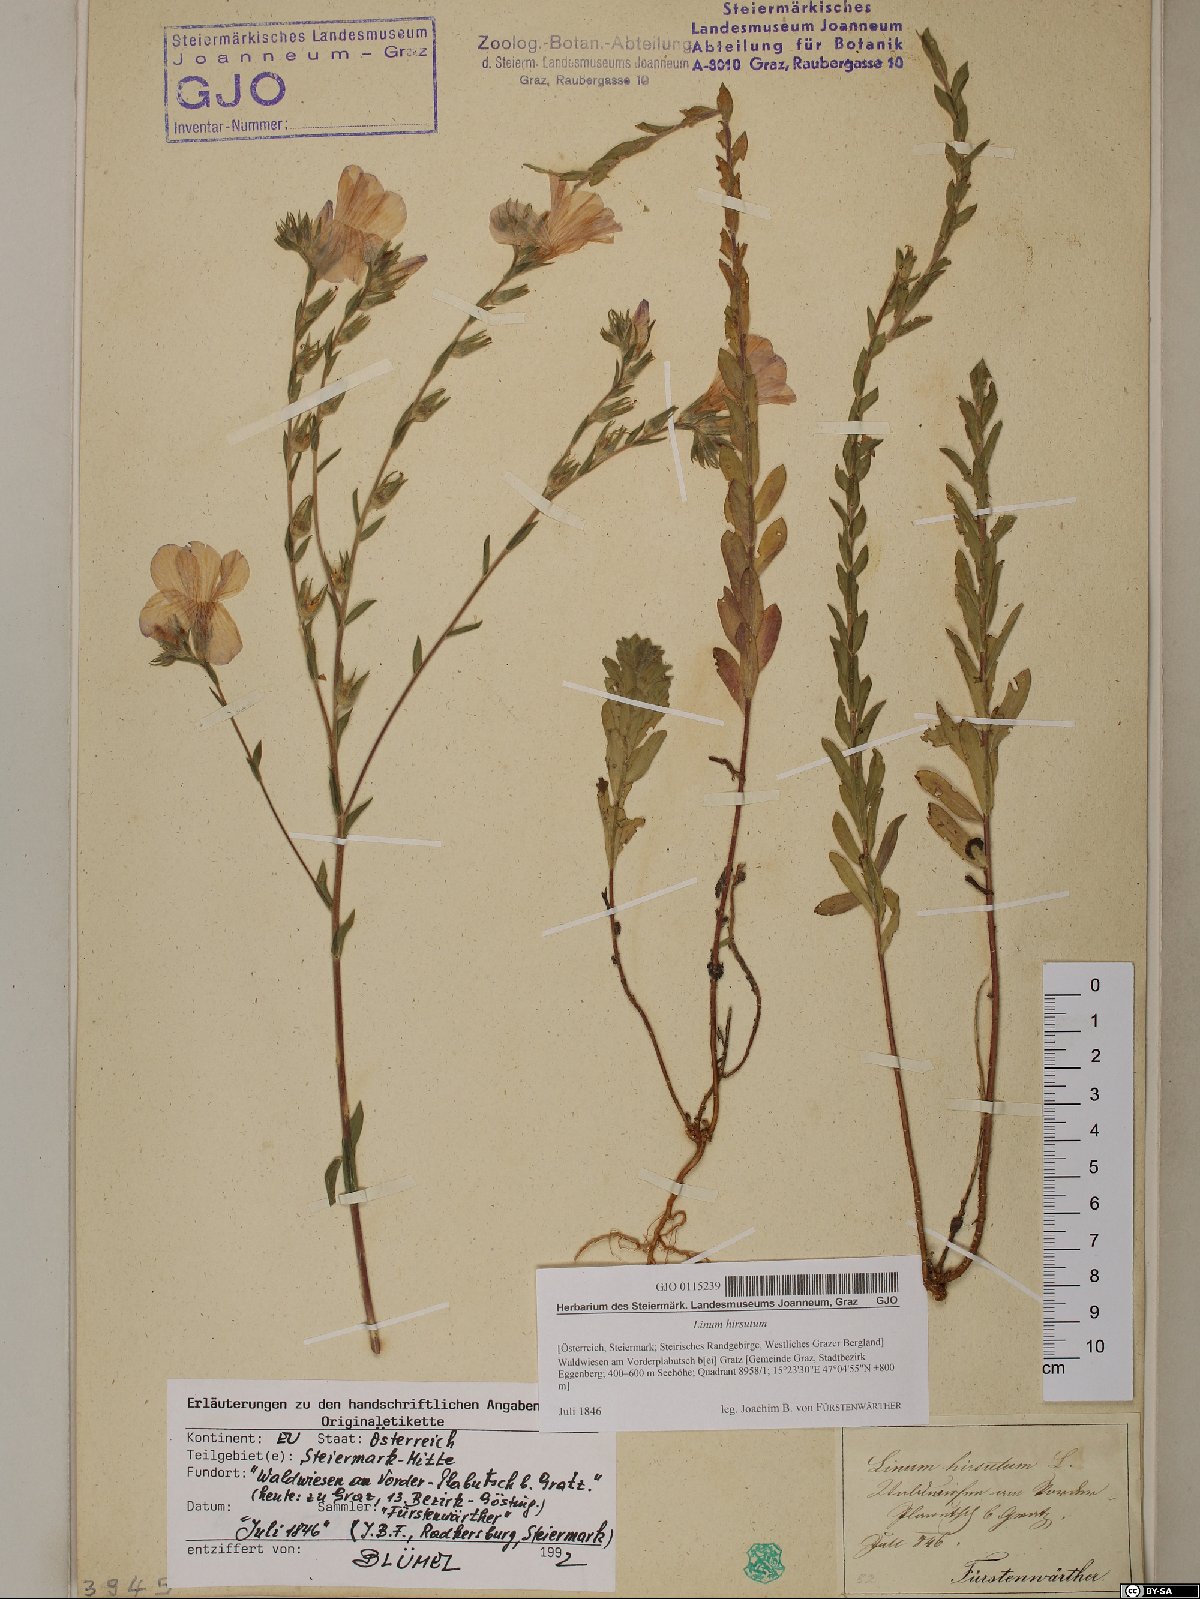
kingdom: Plantae
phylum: Tracheophyta
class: Magnoliopsida
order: Malpighiales
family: Linaceae
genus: Linum
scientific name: Linum hirsutum
